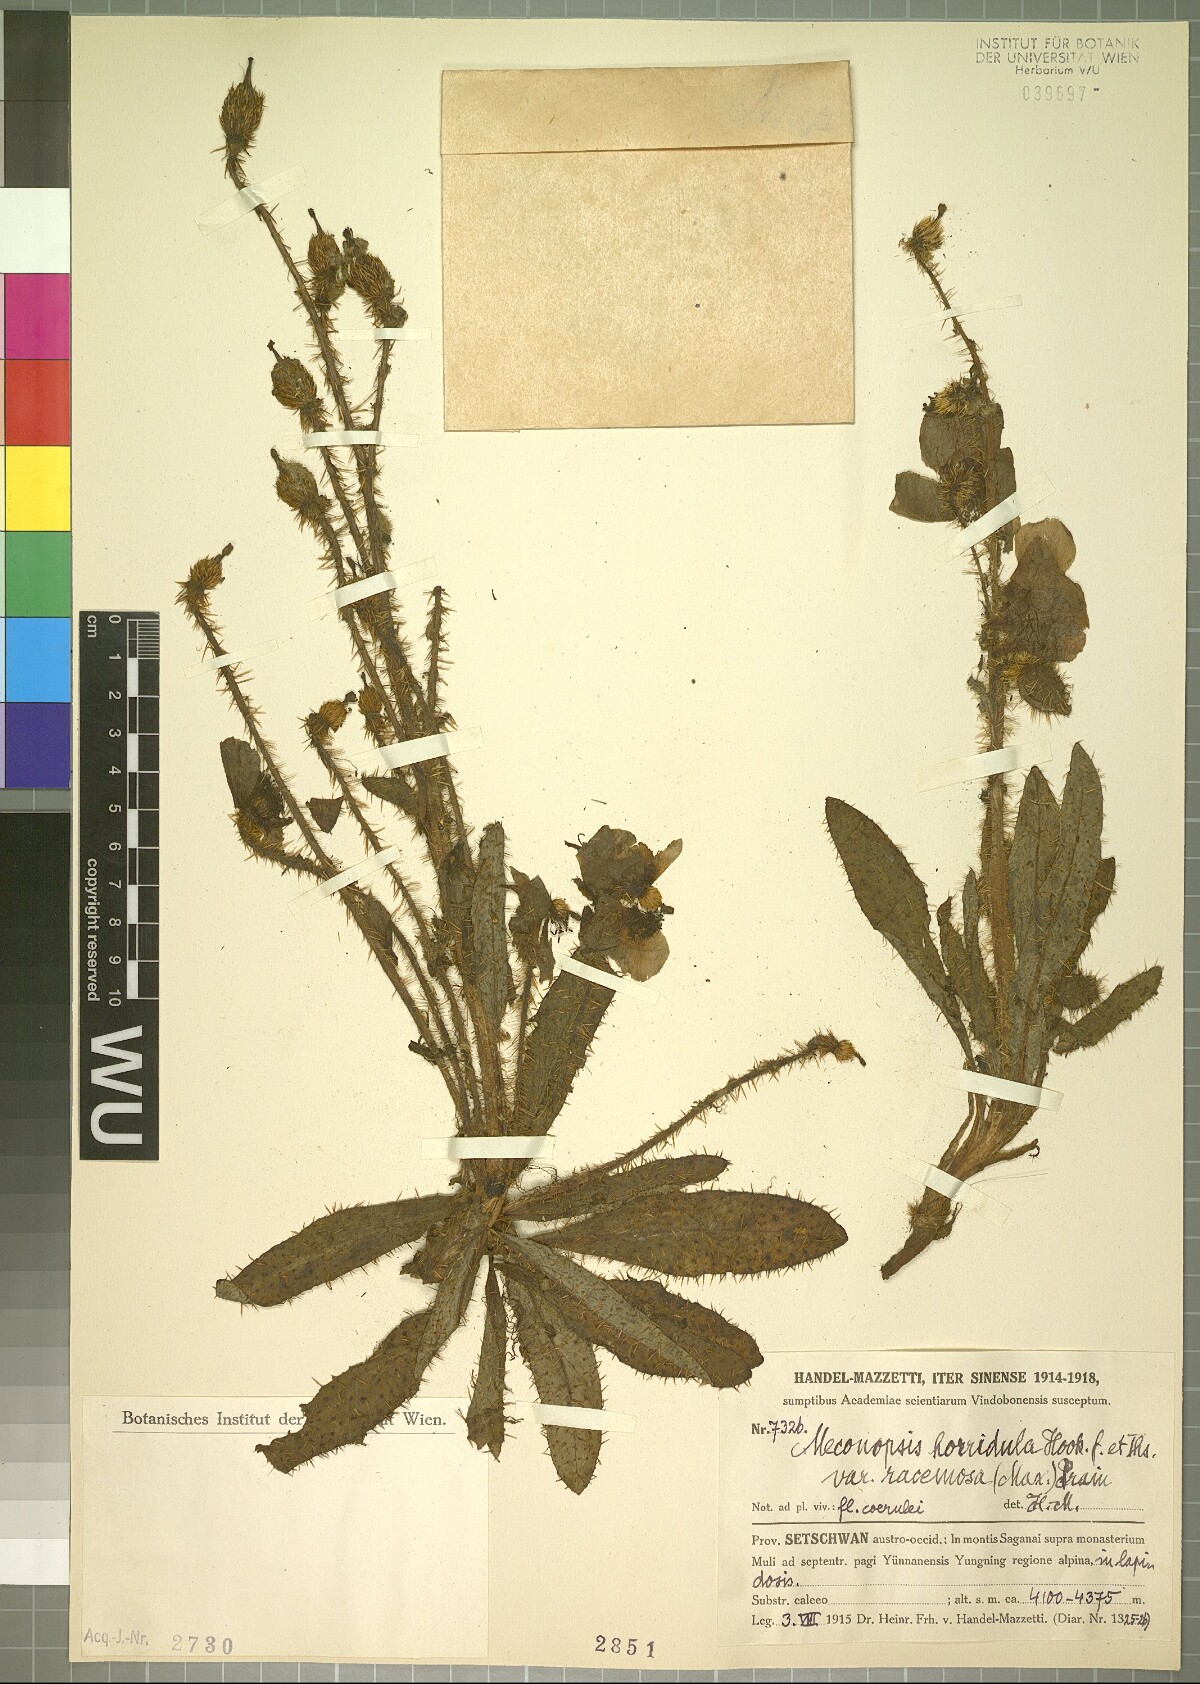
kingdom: Plantae
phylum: Tracheophyta
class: Magnoliopsida
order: Ranunculales
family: Papaveraceae
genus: Meconopsis
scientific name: Meconopsis horridula
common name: Prickly blue-poppy
